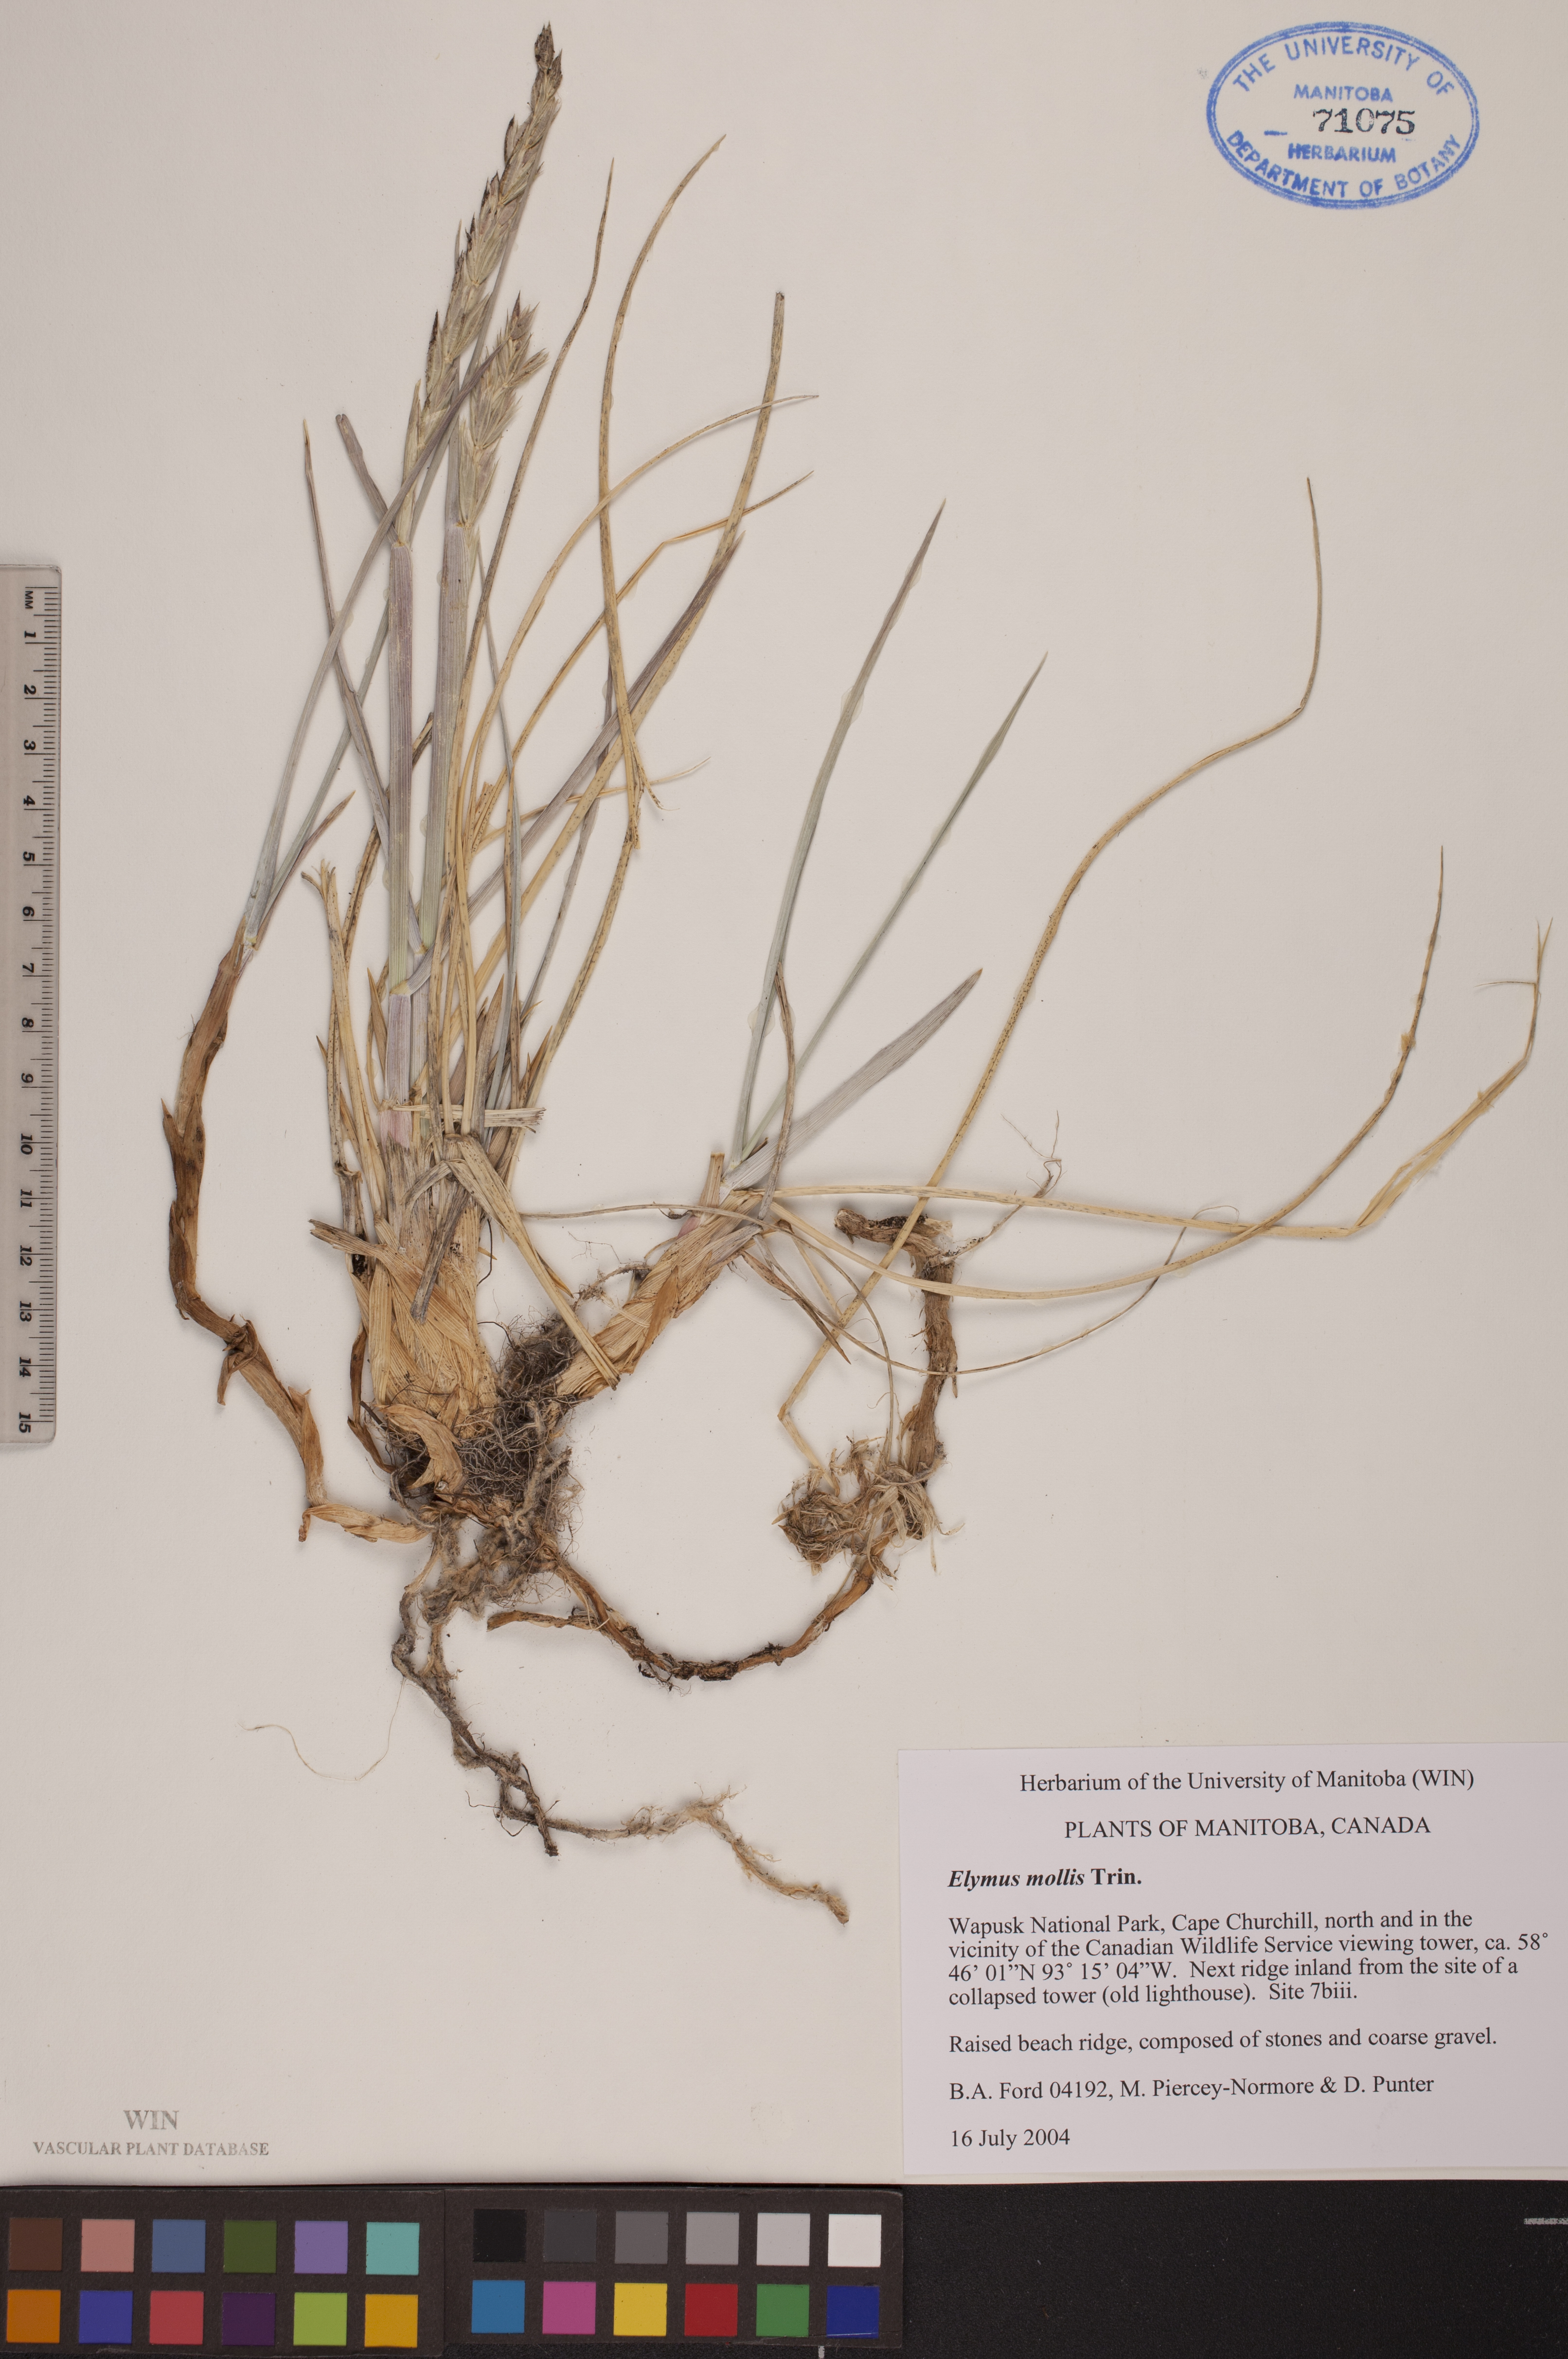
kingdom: Plantae
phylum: Tracheophyta
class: Liliopsida
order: Poales
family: Poaceae
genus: Leymus
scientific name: Leymus mollis
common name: American dune grass
